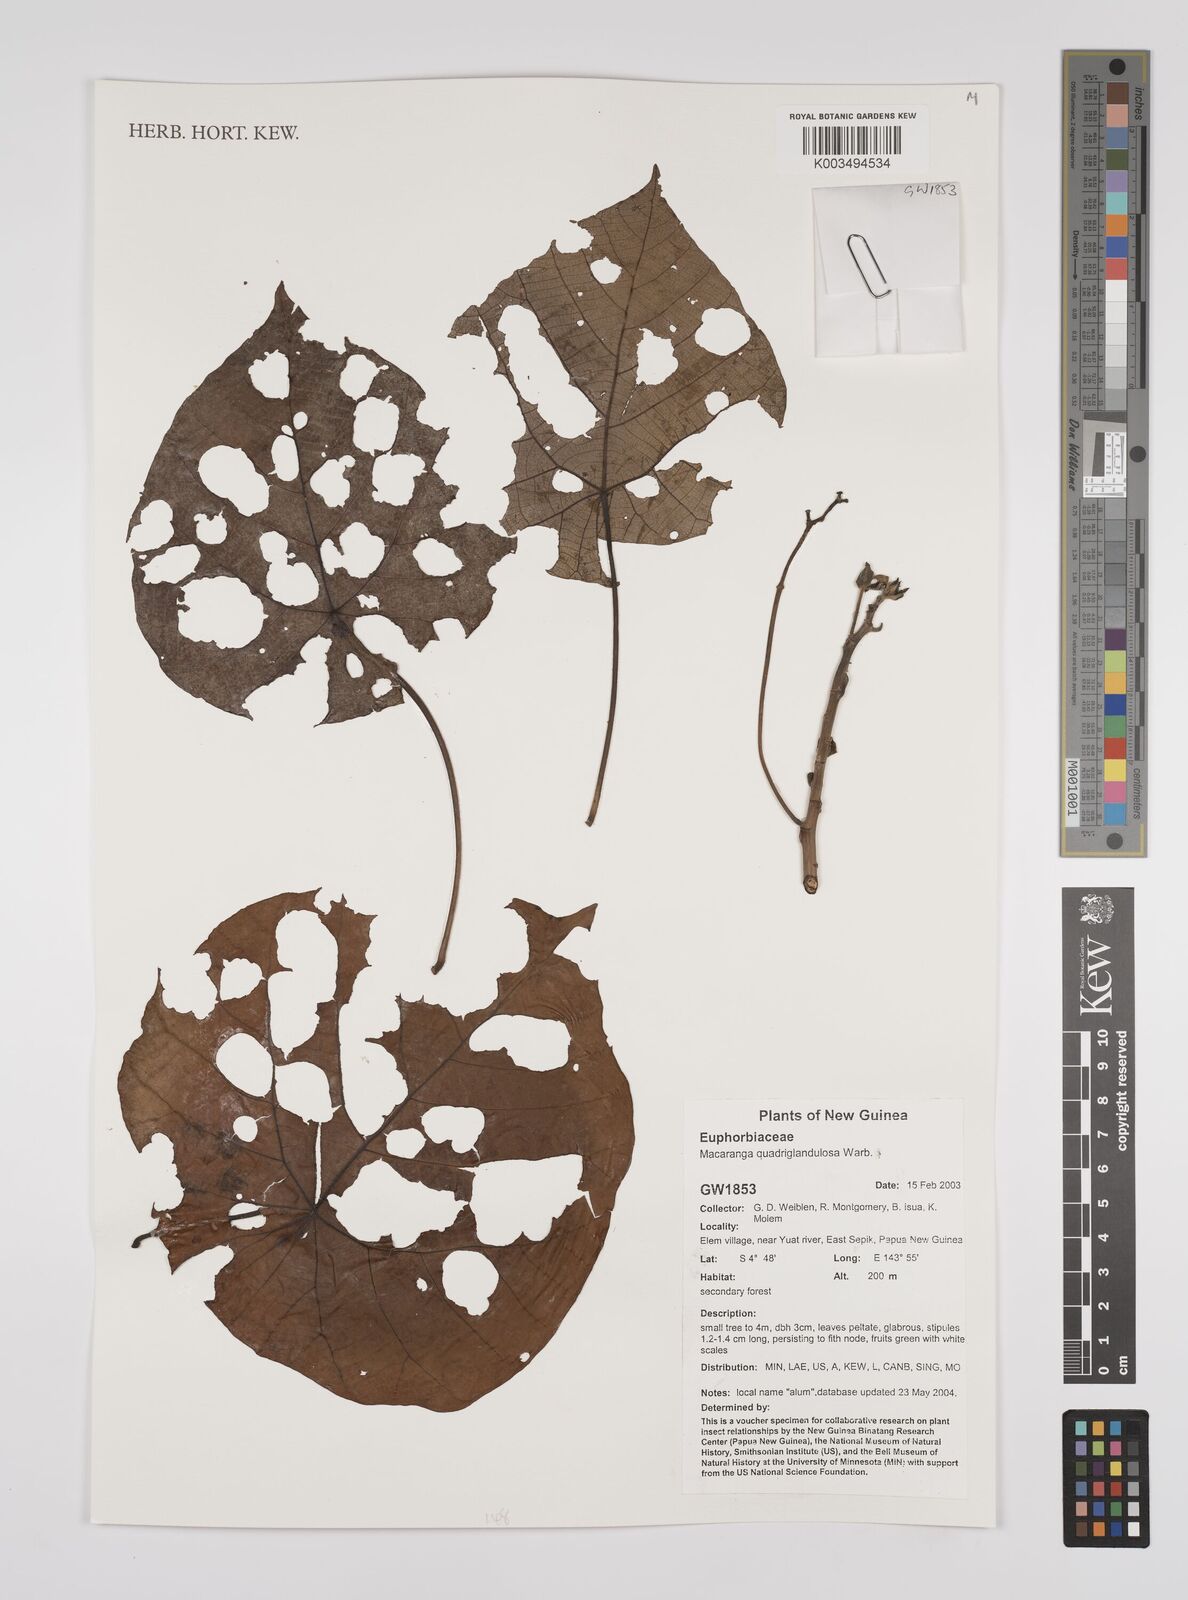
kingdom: Plantae
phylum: Tracheophyta
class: Magnoliopsida
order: Malpighiales
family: Euphorbiaceae
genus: Macaranga
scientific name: Macaranga quadriglandulosa
